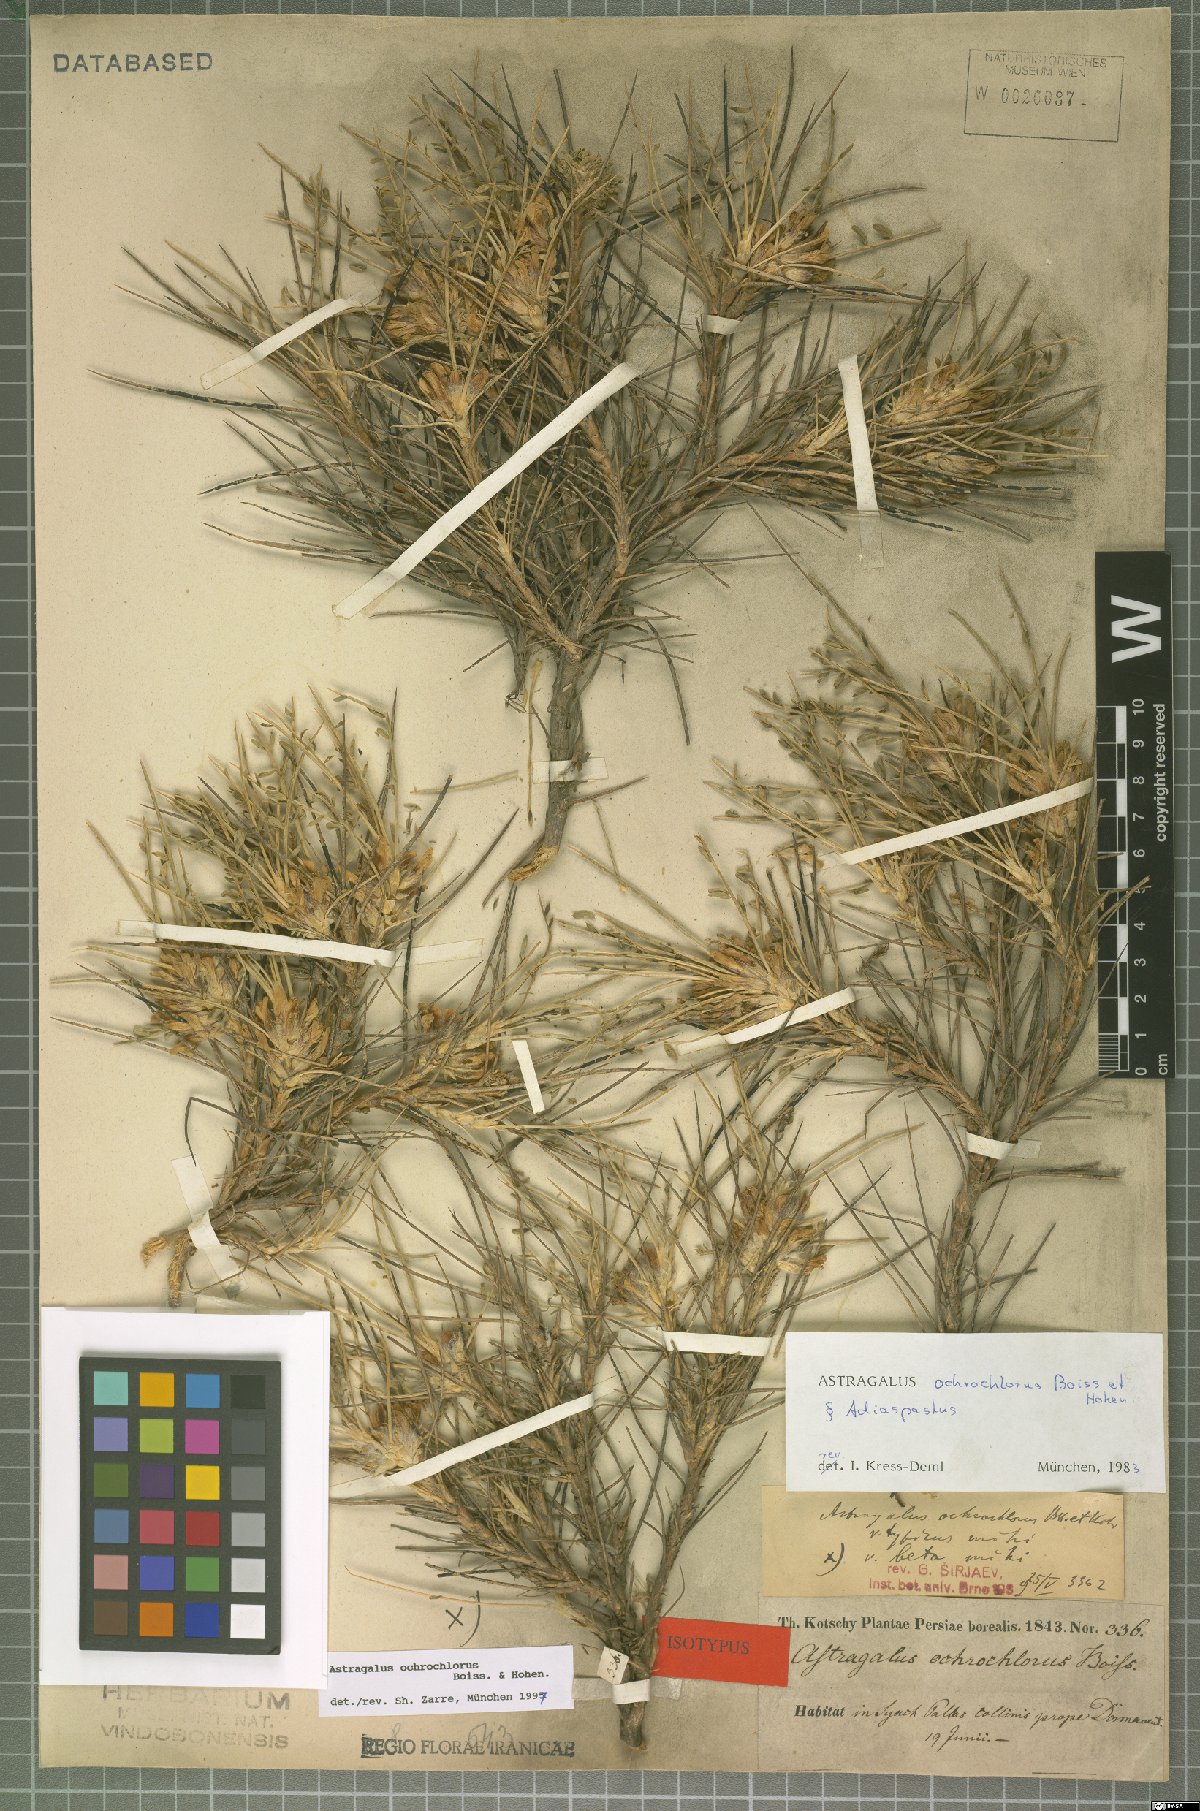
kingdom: Plantae
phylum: Tracheophyta
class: Magnoliopsida
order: Fabales
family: Fabaceae
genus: Astragalus
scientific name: Astragalus ochrochlorus
